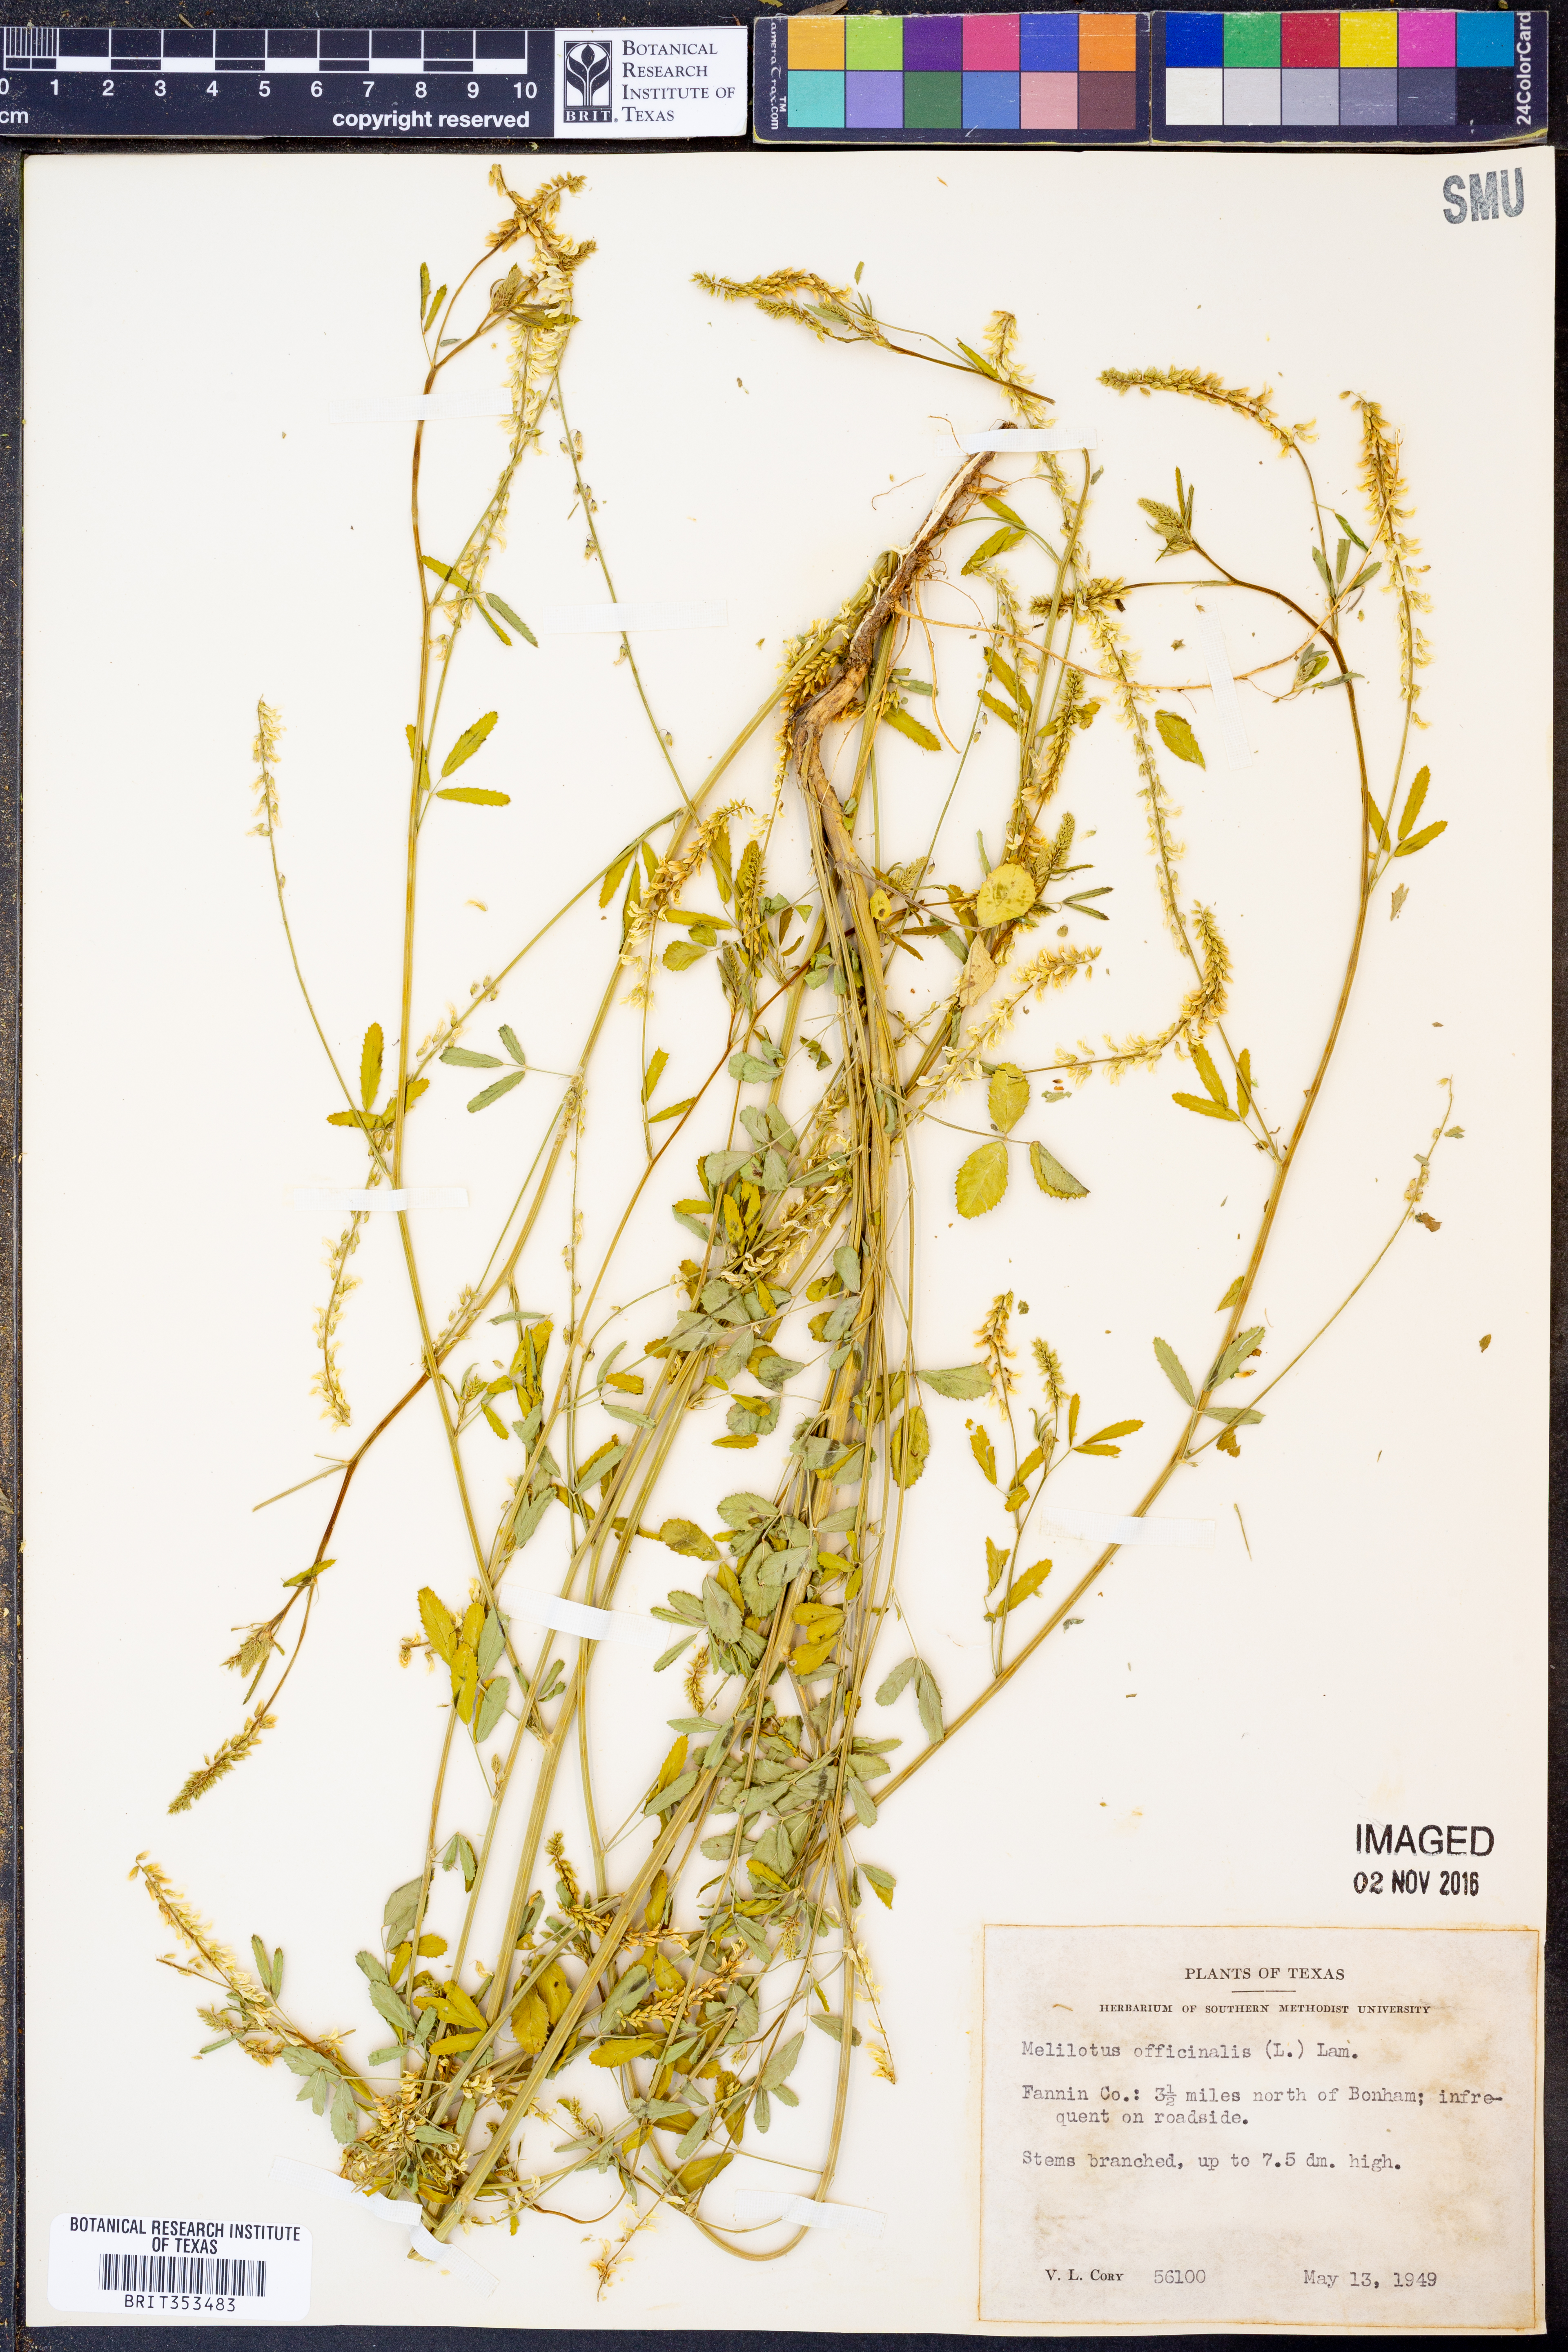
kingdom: Plantae
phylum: Tracheophyta
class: Magnoliopsida
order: Fabales
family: Fabaceae
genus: Melilotus
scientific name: Melilotus officinalis
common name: Sweetclover
